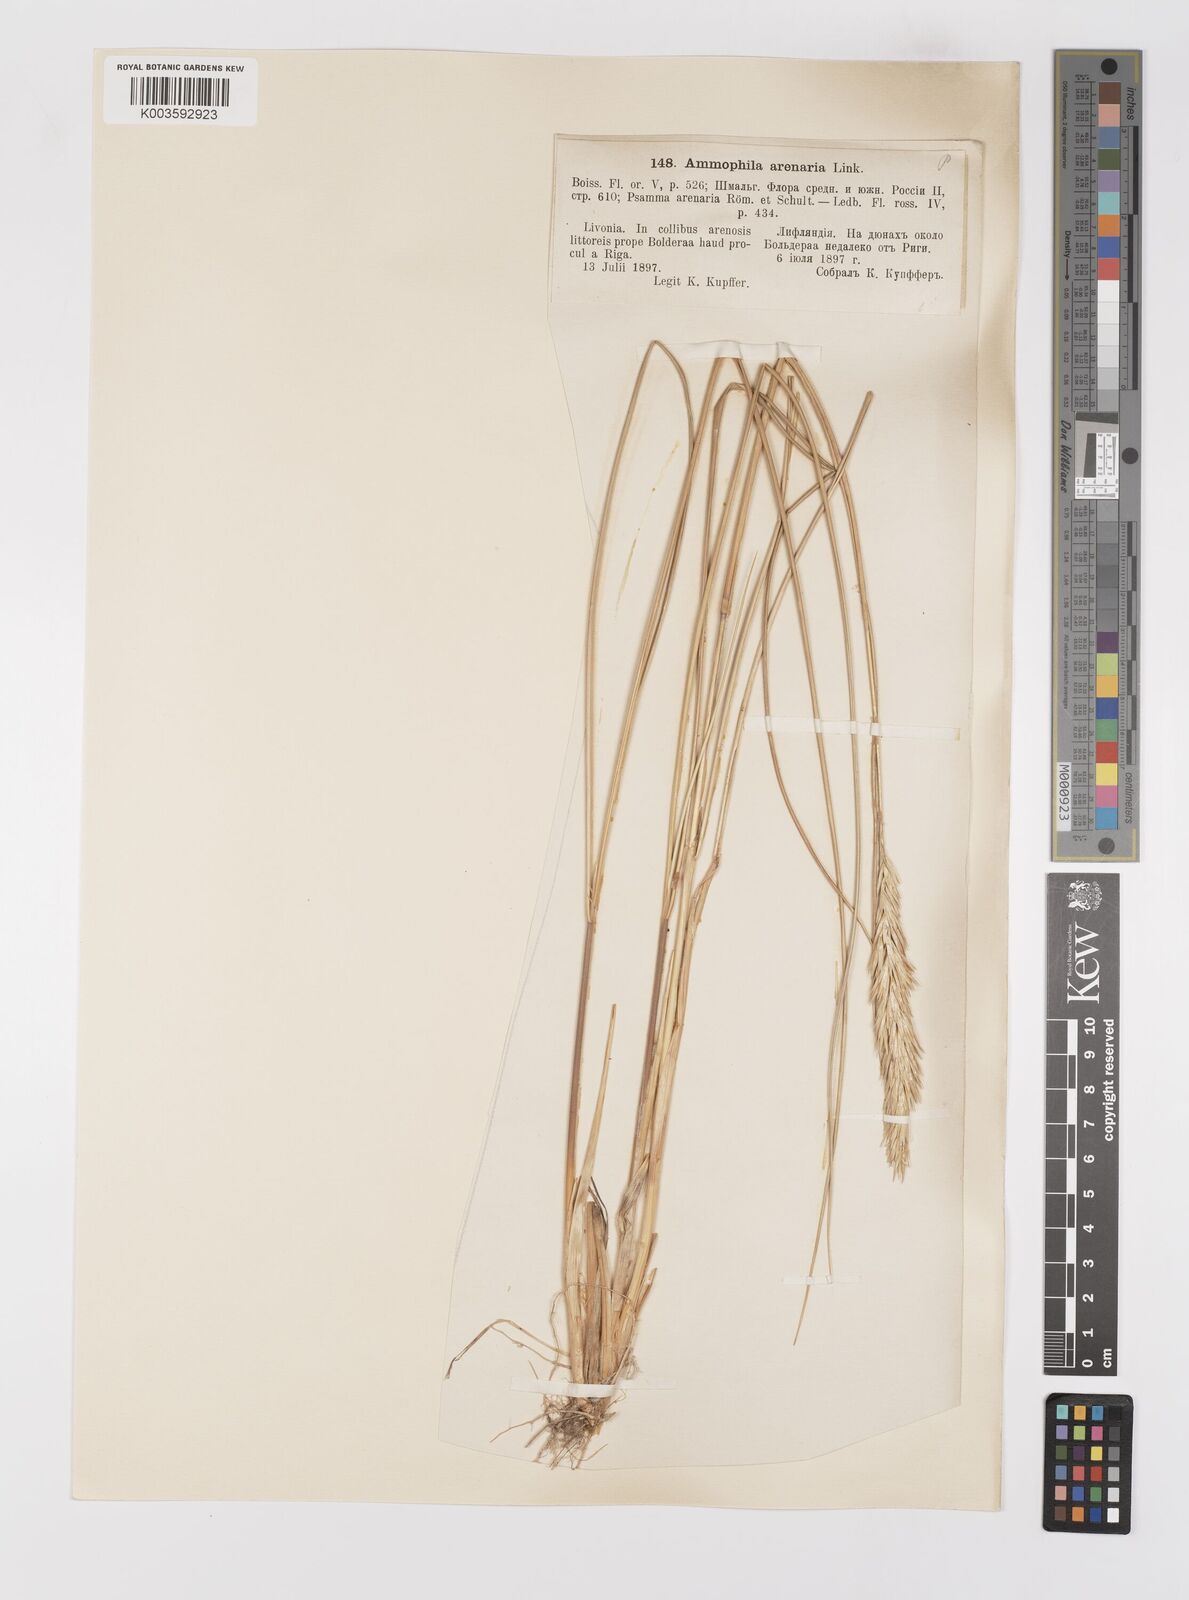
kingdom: Plantae
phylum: Tracheophyta
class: Liliopsida
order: Poales
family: Poaceae
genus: Calamagrostis
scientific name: Calamagrostis arenaria
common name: European beachgrass
